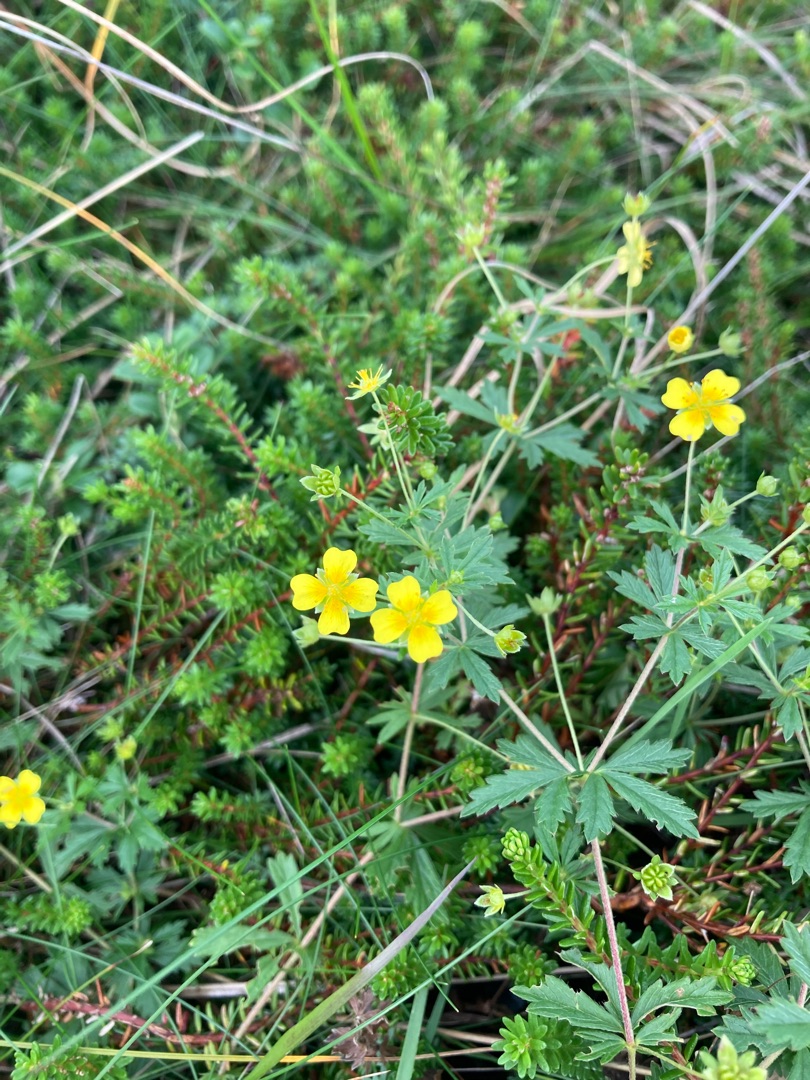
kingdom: Plantae
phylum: Tracheophyta
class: Magnoliopsida
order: Rosales
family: Rosaceae
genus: Potentilla
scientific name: Potentilla erecta
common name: Tormentil
